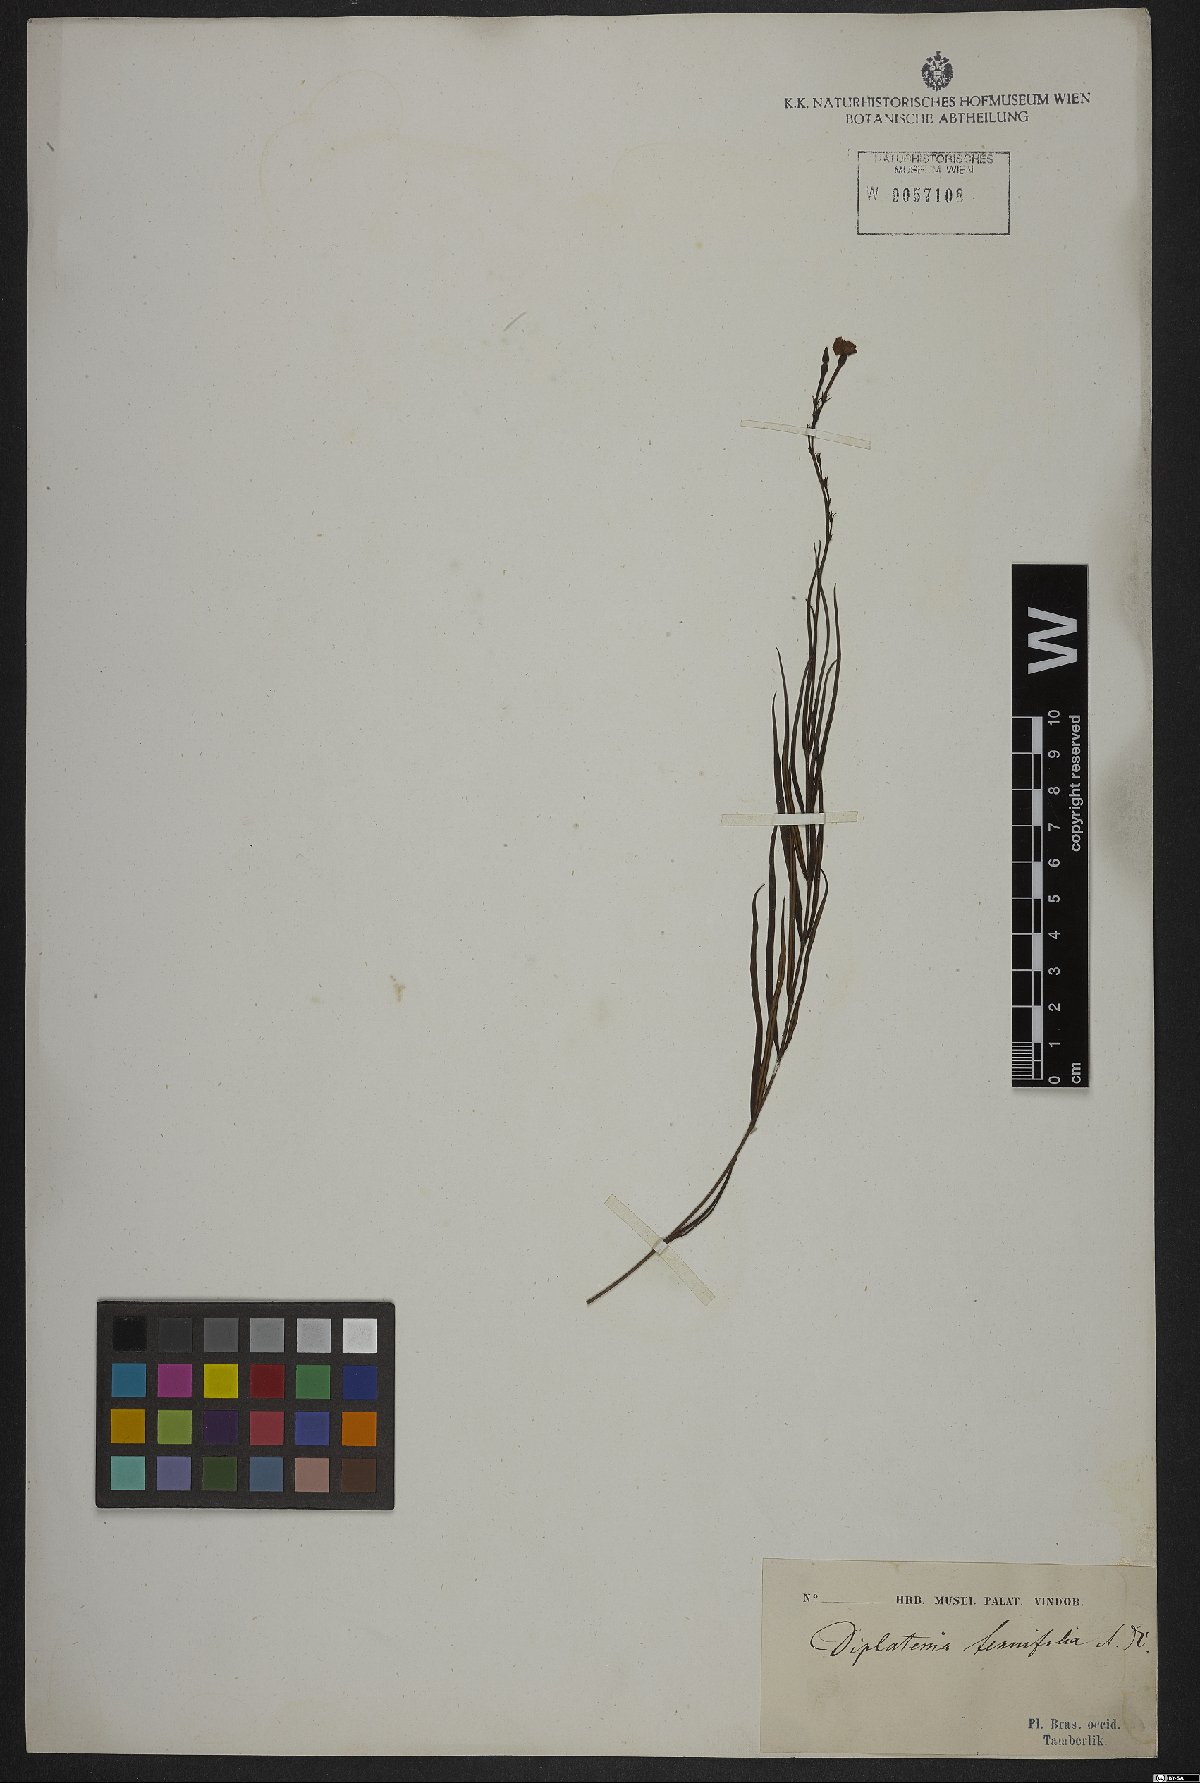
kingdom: Plantae
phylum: Tracheophyta
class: Magnoliopsida
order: Gentianales
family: Apocynaceae
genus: Mandevilla
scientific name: Mandevilla tenuifolia
